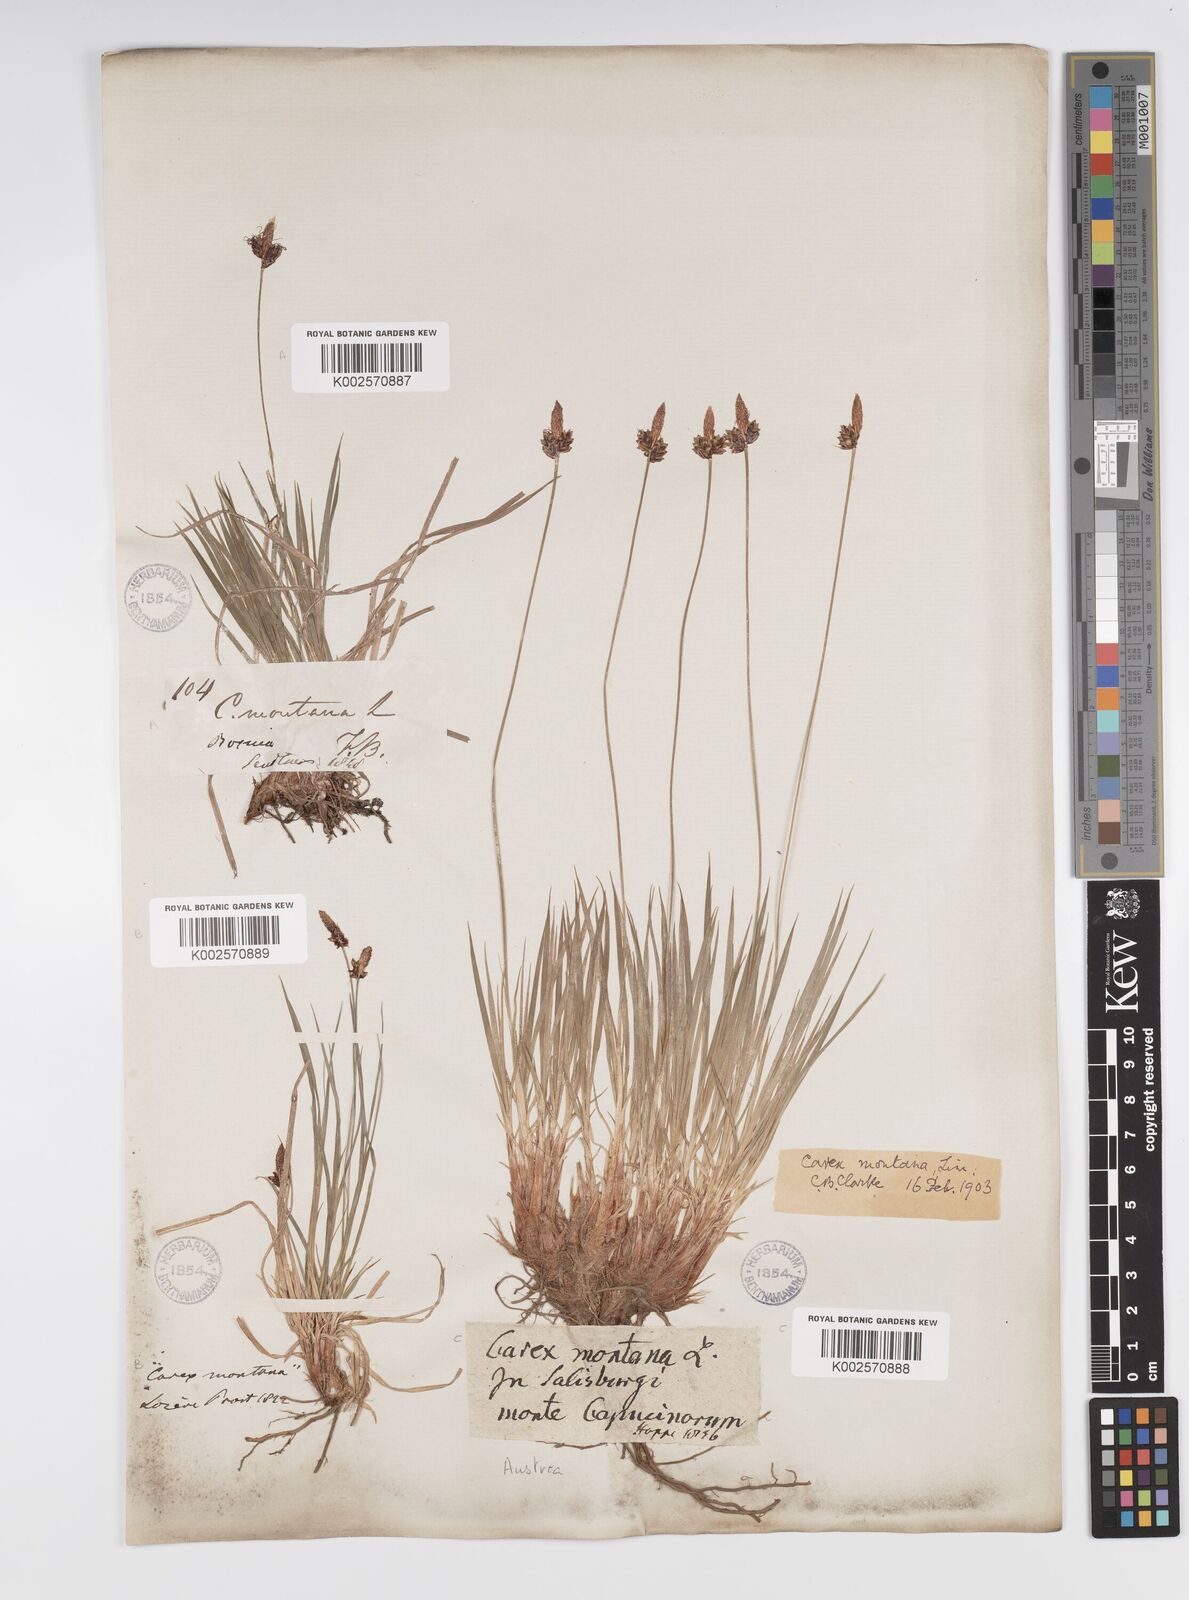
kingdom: Plantae
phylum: Tracheophyta
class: Liliopsida
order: Poales
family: Cyperaceae
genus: Carex
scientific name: Carex montana
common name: Soft-leaved sedge
